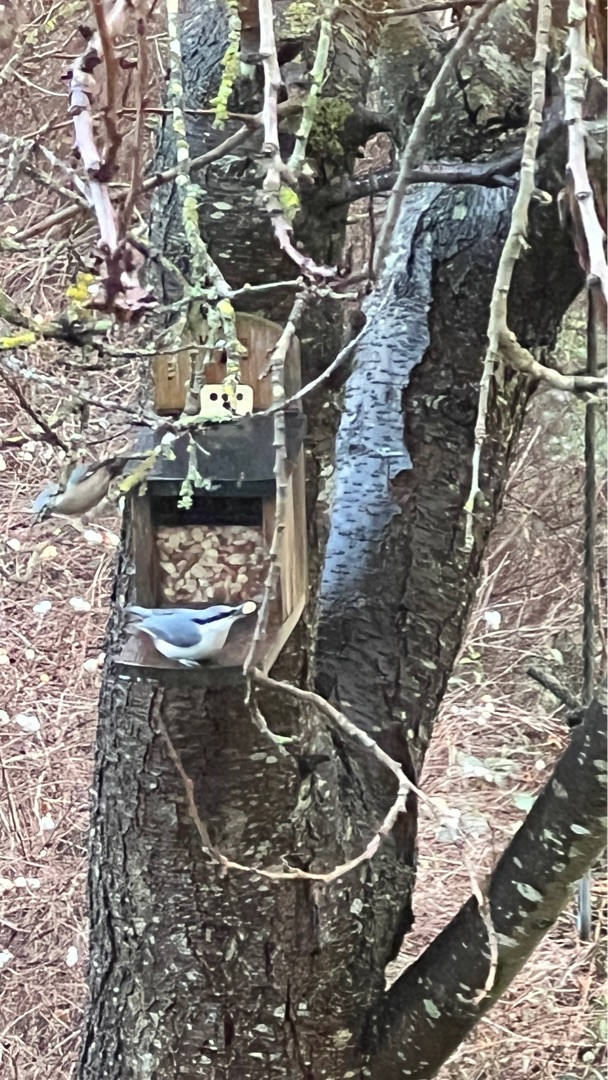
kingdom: Animalia
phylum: Chordata
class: Aves
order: Passeriformes
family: Sittidae
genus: Sitta
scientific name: Sitta europaea
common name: Spætmejse
